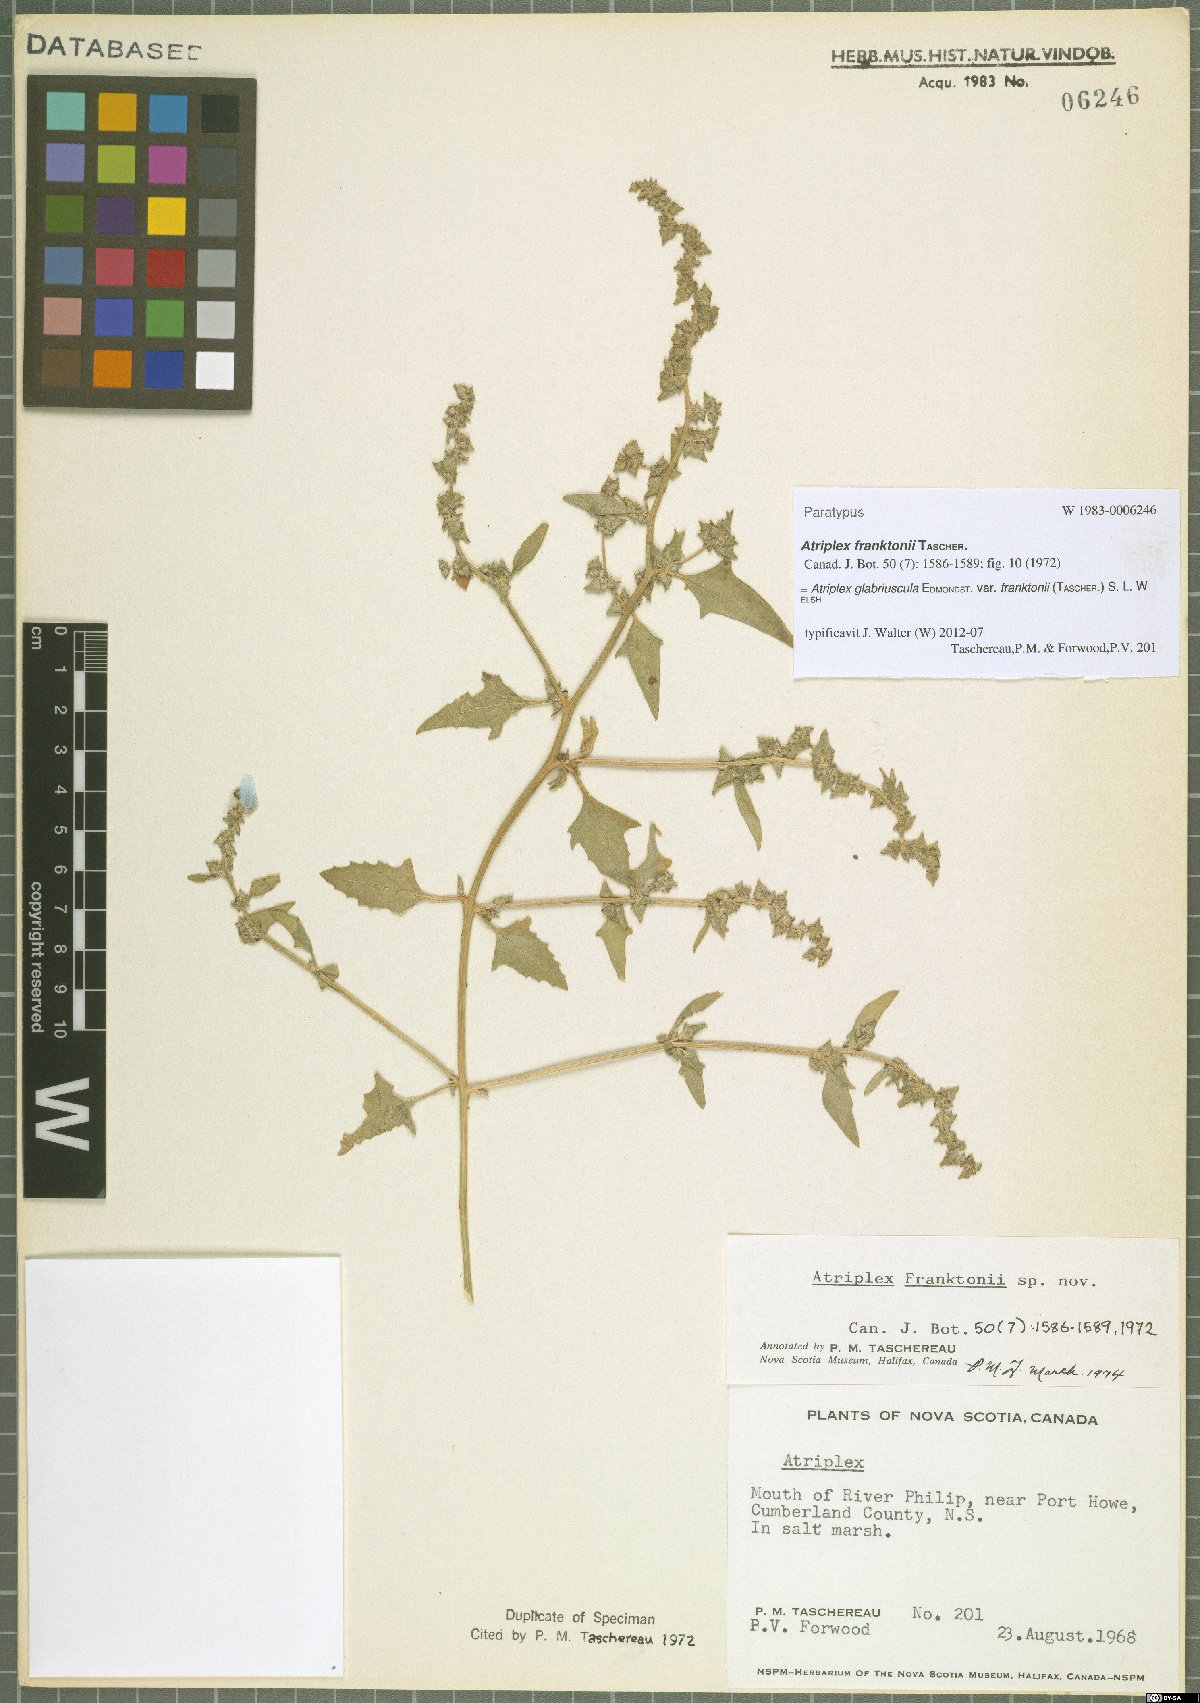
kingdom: Plantae
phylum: Tracheophyta
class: Magnoliopsida
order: Caryophyllales
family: Amaranthaceae
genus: Atriplex
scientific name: Atriplex glabriuscula
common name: Babington's orache
